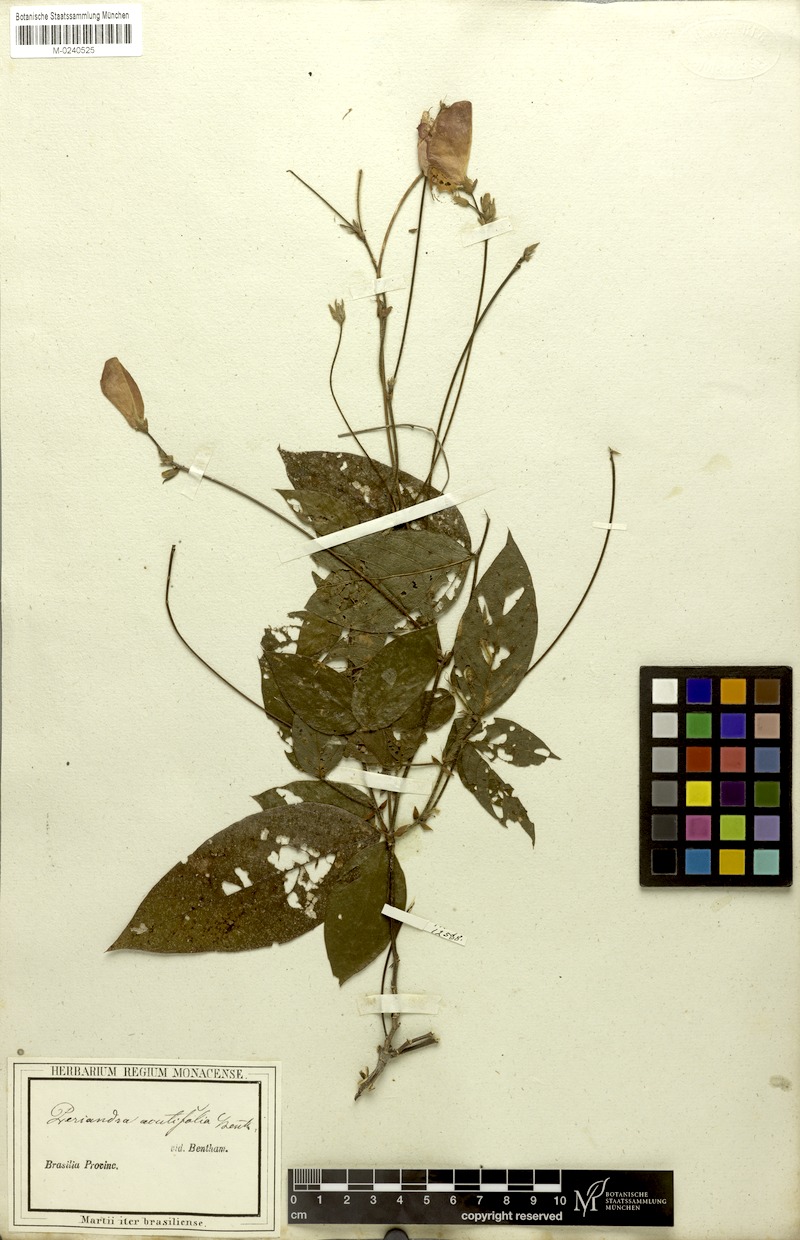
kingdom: Plantae
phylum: Tracheophyta
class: Magnoliopsida
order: Fabales
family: Fabaceae
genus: Periandra
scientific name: Periandra coccinea
